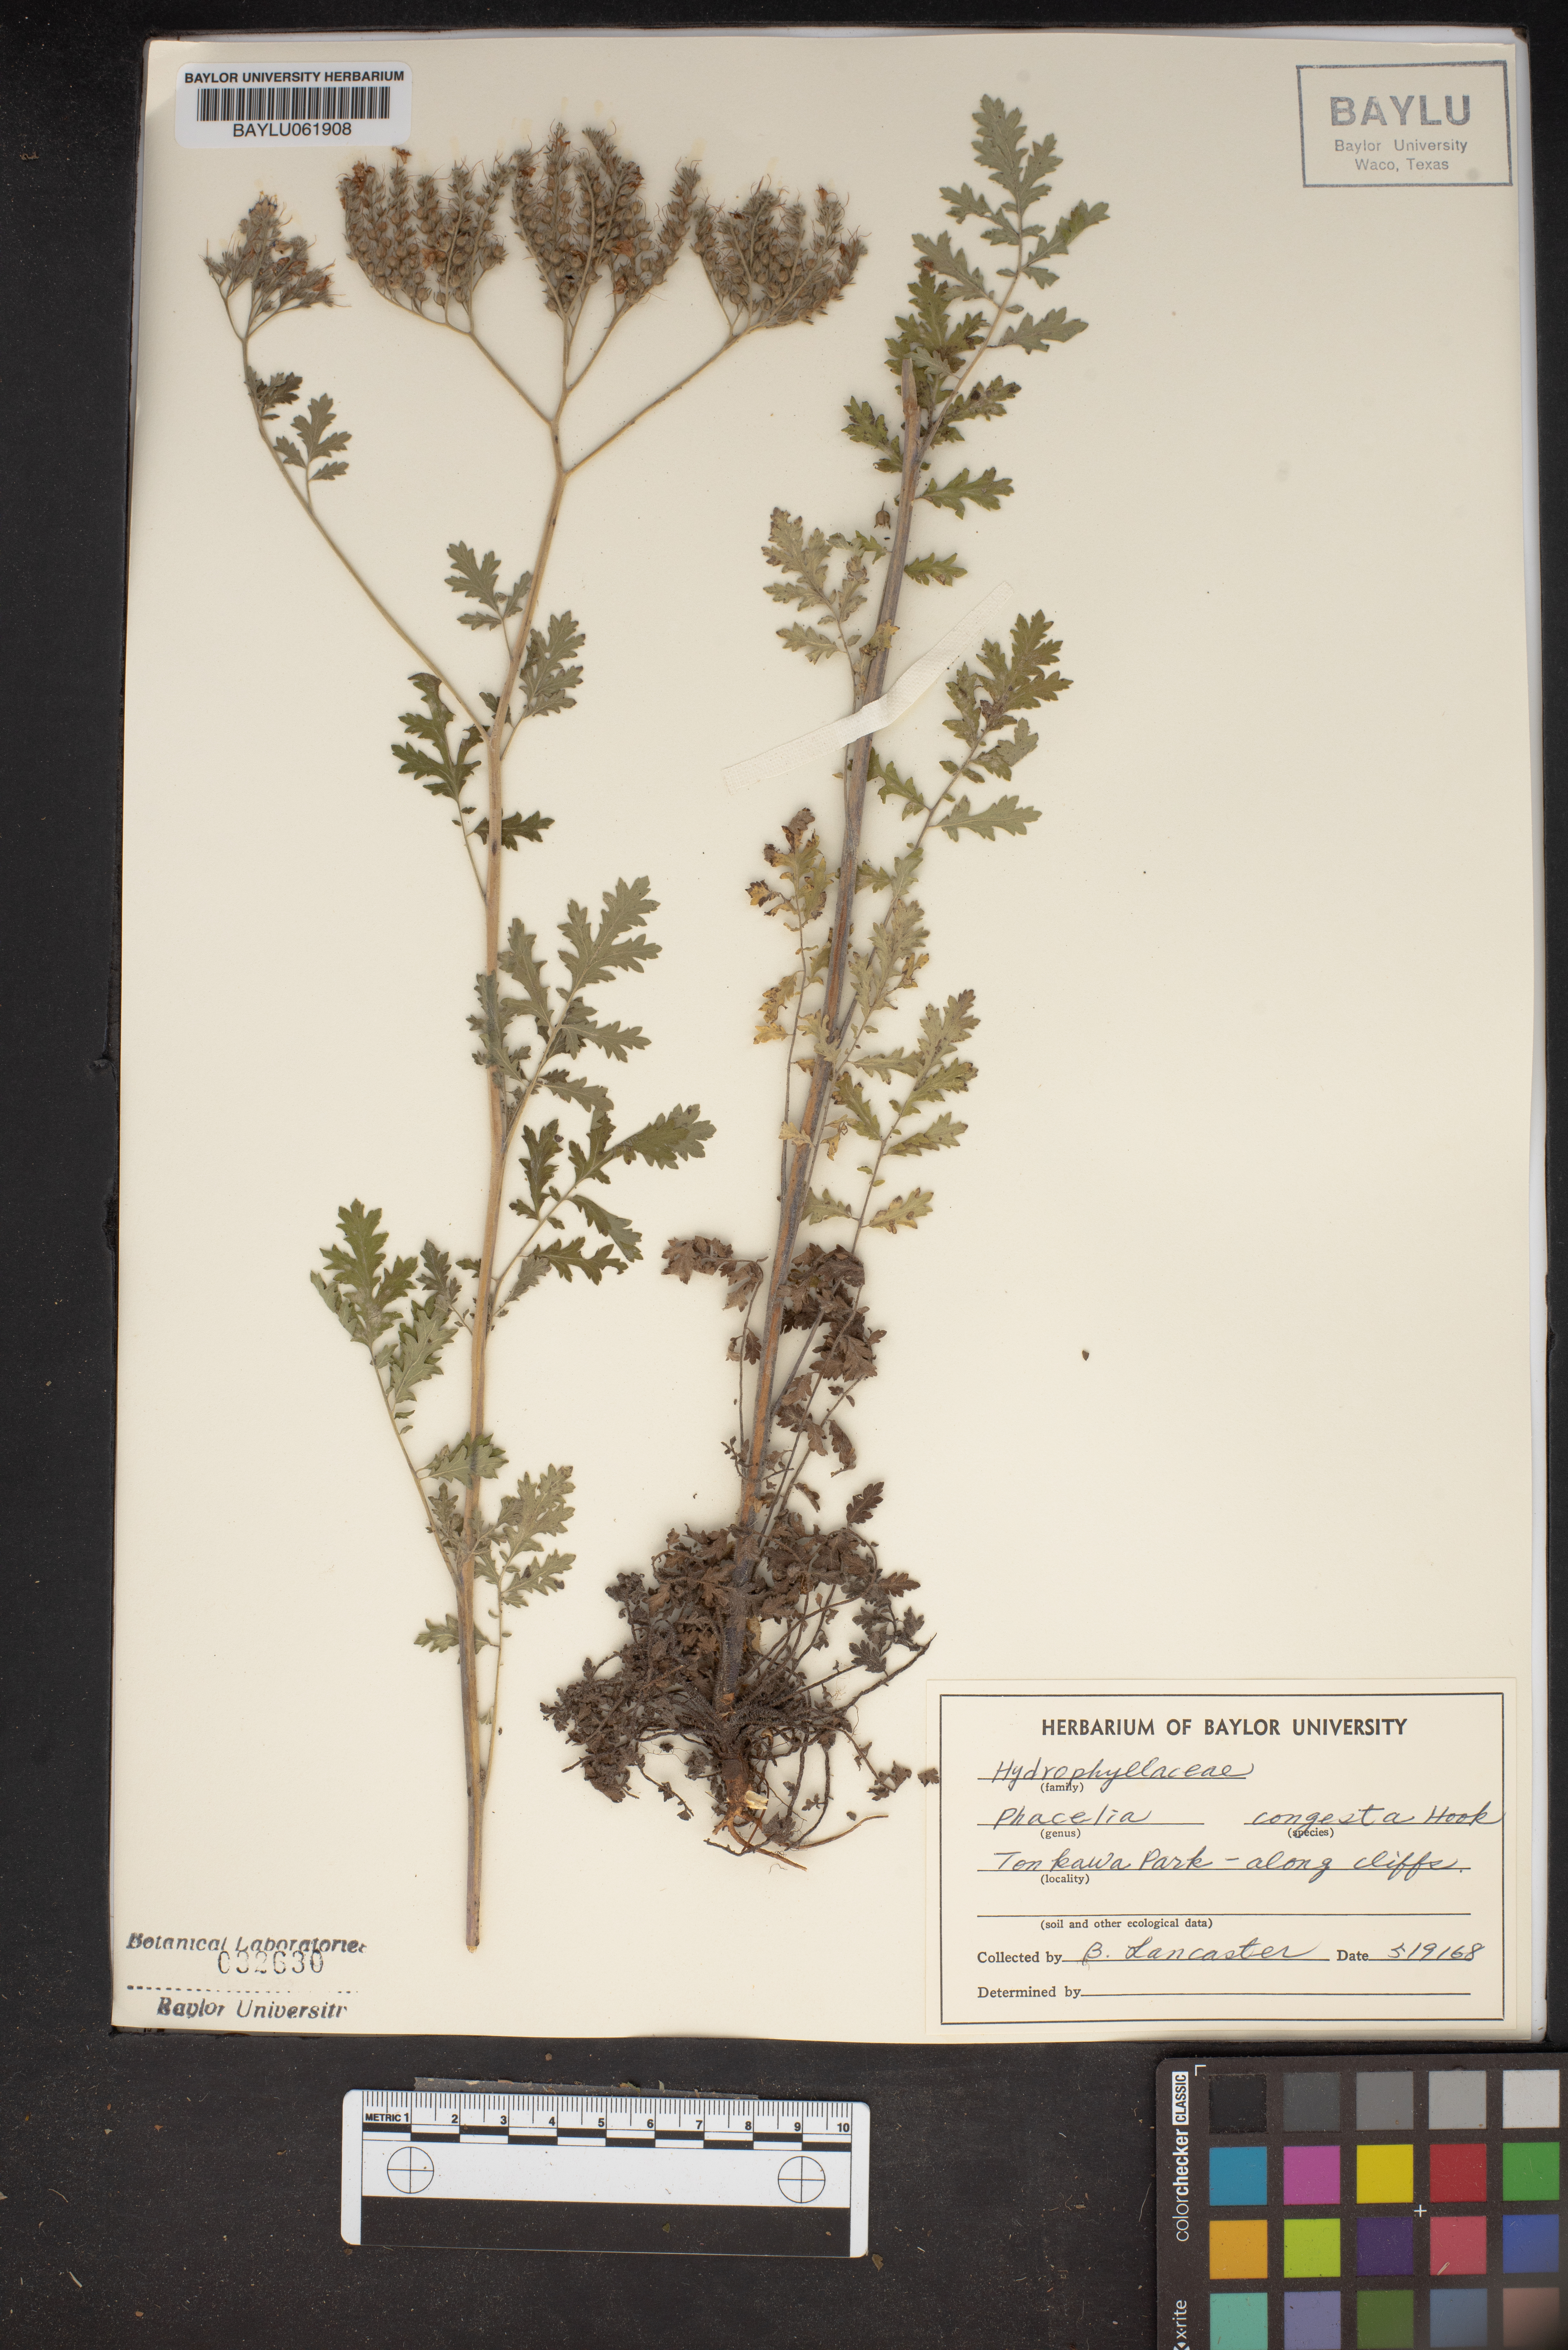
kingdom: Plantae
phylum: Tracheophyta
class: Magnoliopsida
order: Boraginales
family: Hydrophyllaceae
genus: Phacelia
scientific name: Phacelia congesta
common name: Blue curls
